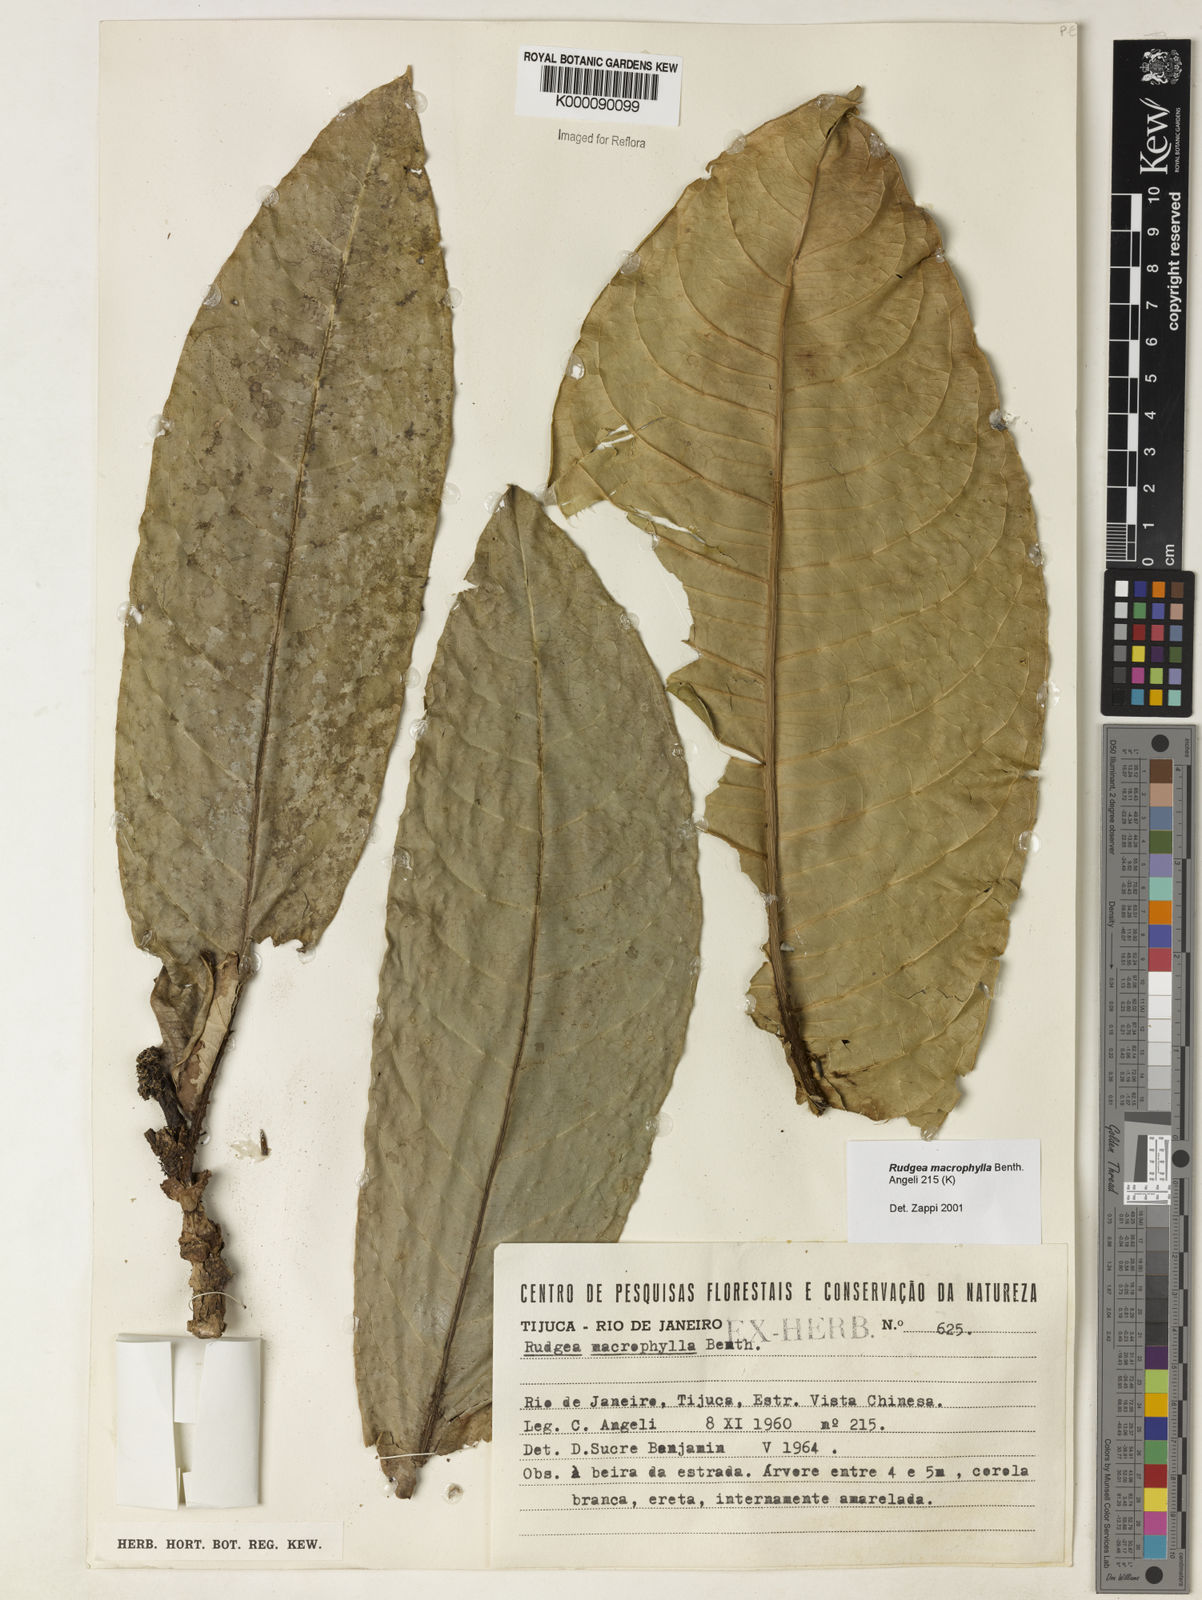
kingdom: Plantae
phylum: Tracheophyta
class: Magnoliopsida
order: Gentianales
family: Rubiaceae
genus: Rudgea
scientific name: Rudgea macrophylla
